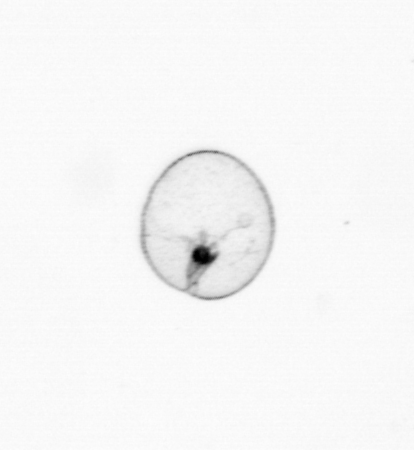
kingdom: Chromista
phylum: Myzozoa
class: Dinophyceae
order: Noctilucales
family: Noctilucaceae
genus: Noctiluca
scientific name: Noctiluca scintillans
